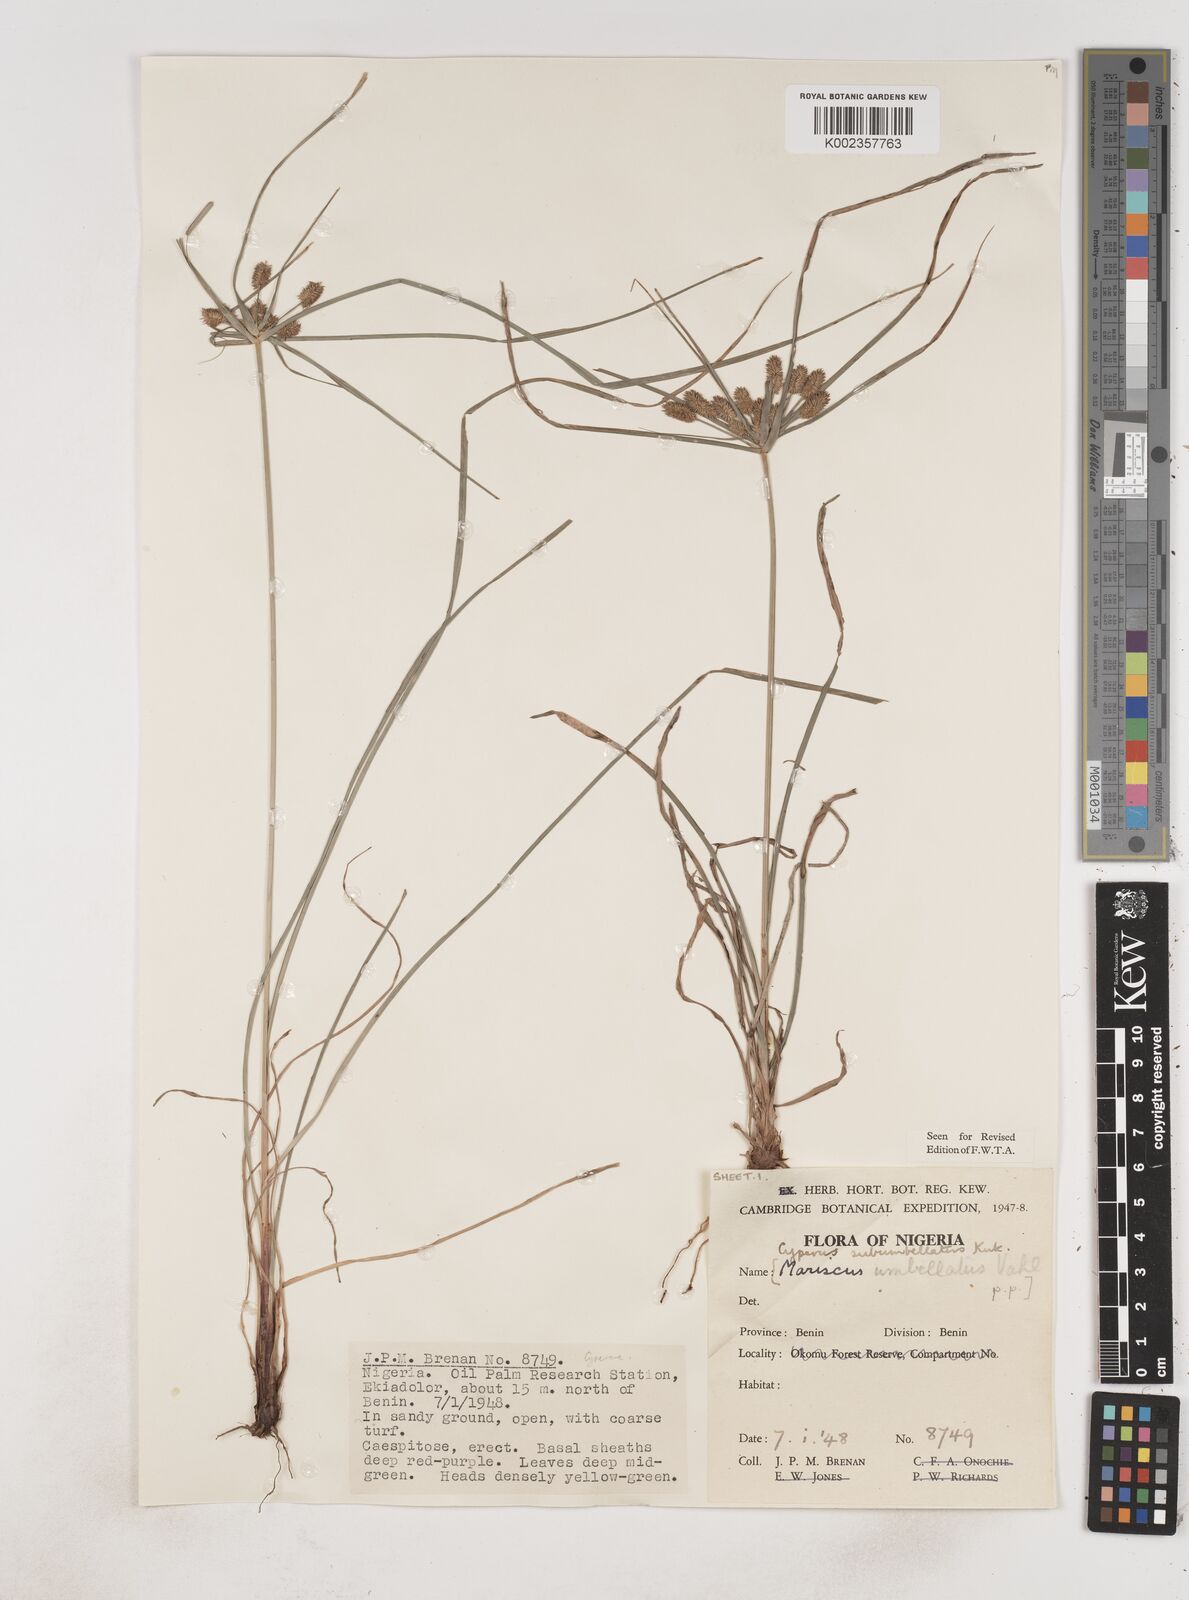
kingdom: Plantae
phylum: Tracheophyta
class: Liliopsida
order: Poales
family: Cyperaceae
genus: Cyperus
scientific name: Cyperus sublimis
